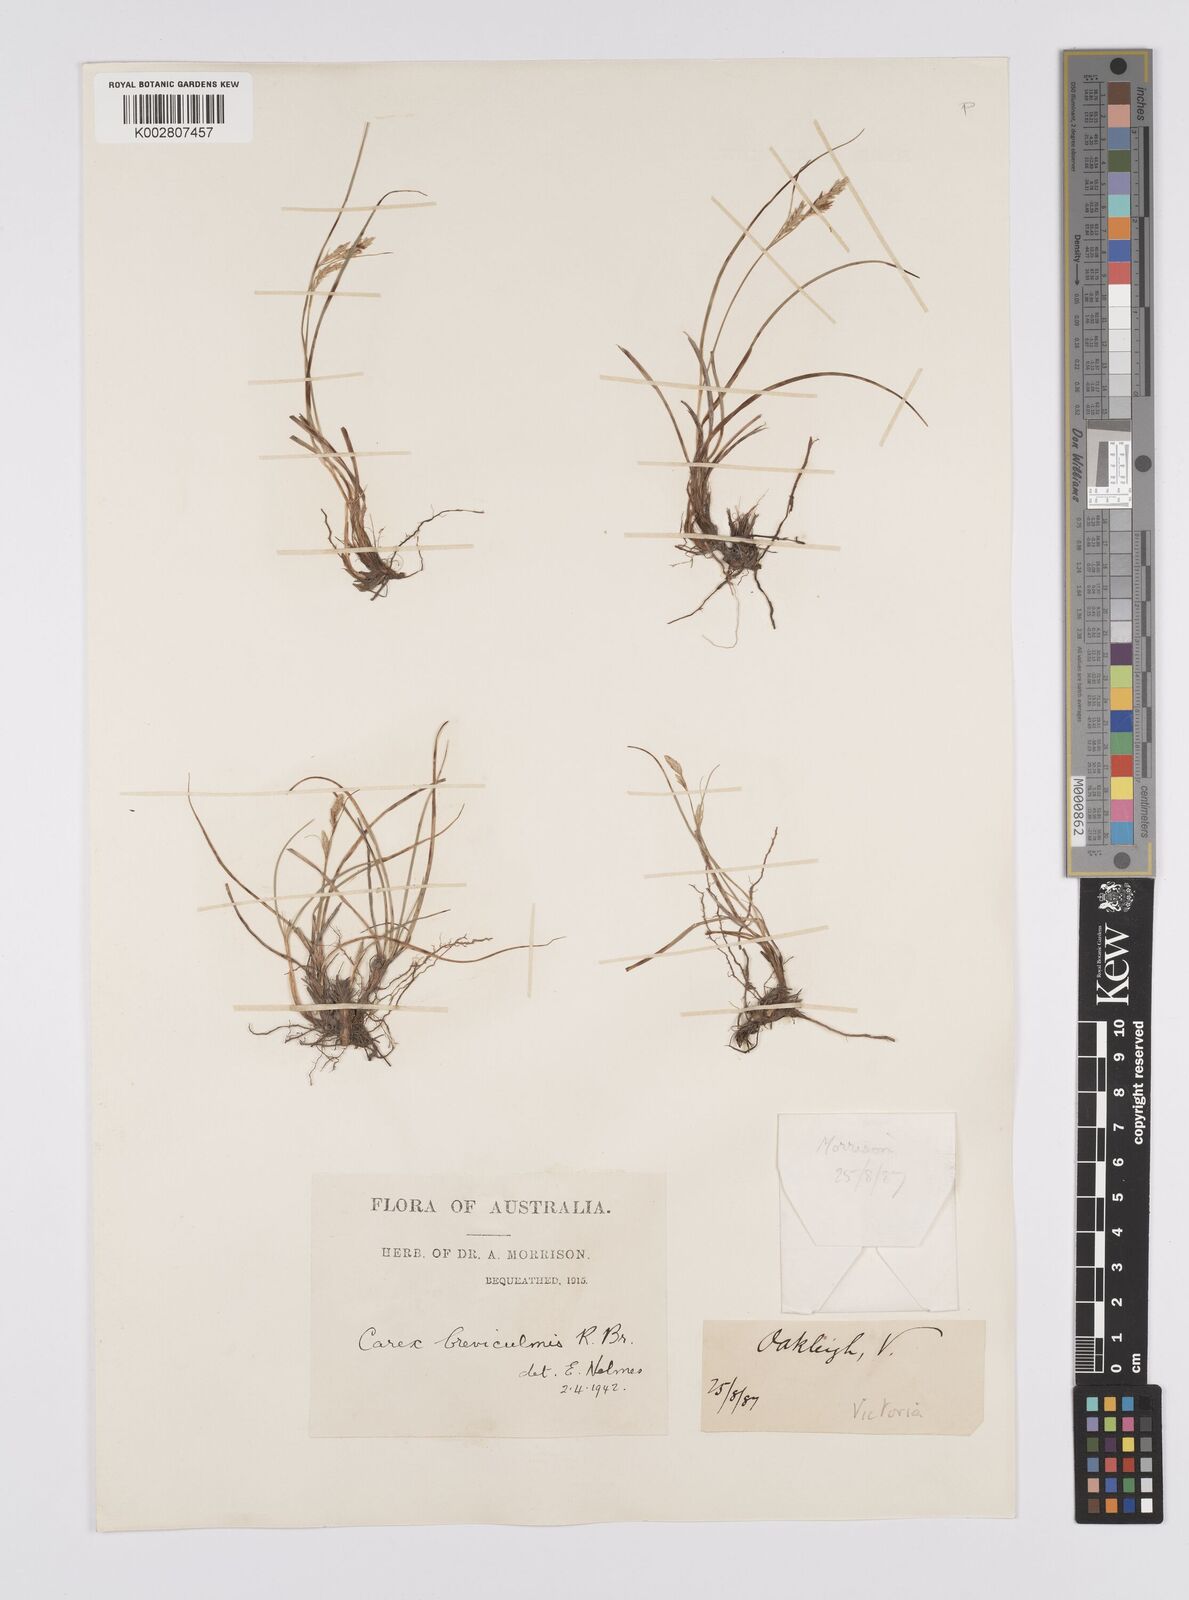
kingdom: Plantae
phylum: Tracheophyta
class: Liliopsida
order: Poales
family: Cyperaceae
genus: Carex
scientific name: Carex breviculmis
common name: Asian shortstem sedge
